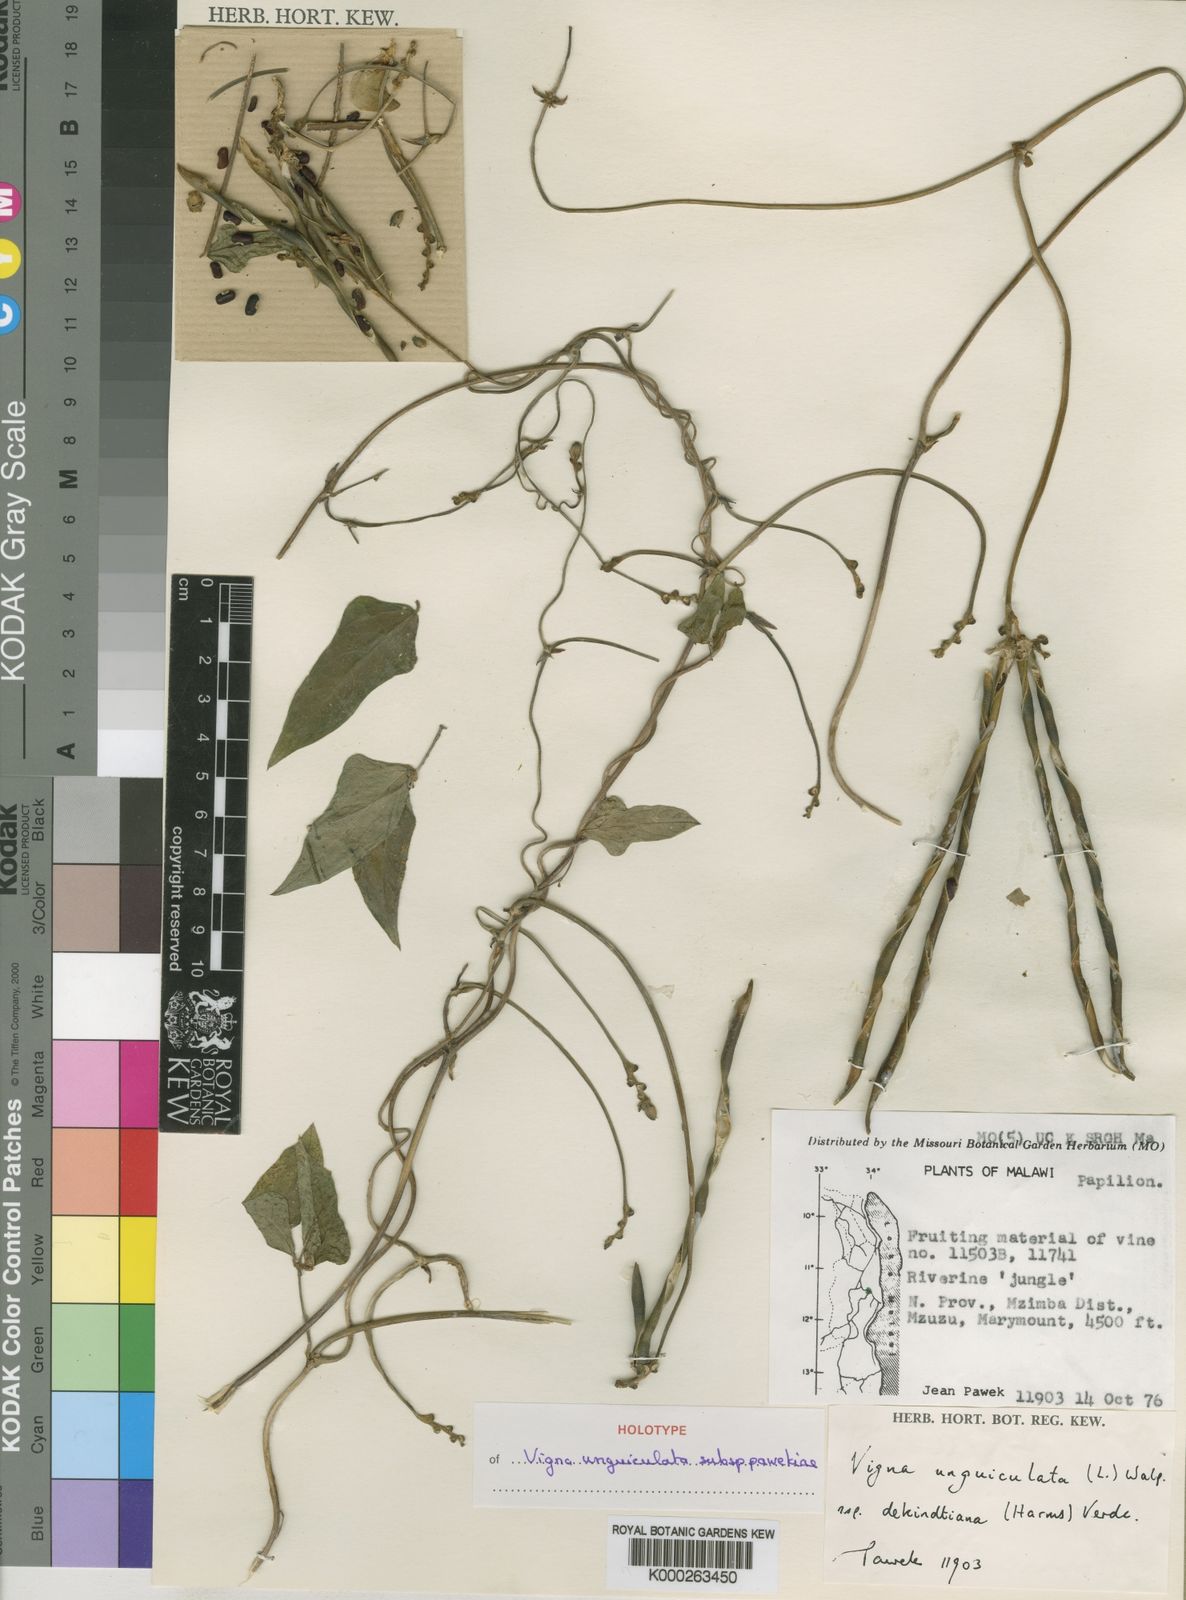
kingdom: Plantae
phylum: Tracheophyta
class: Magnoliopsida
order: Fabales
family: Fabaceae
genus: Vigna
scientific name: Vigna unguiculata
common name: Cowpea
